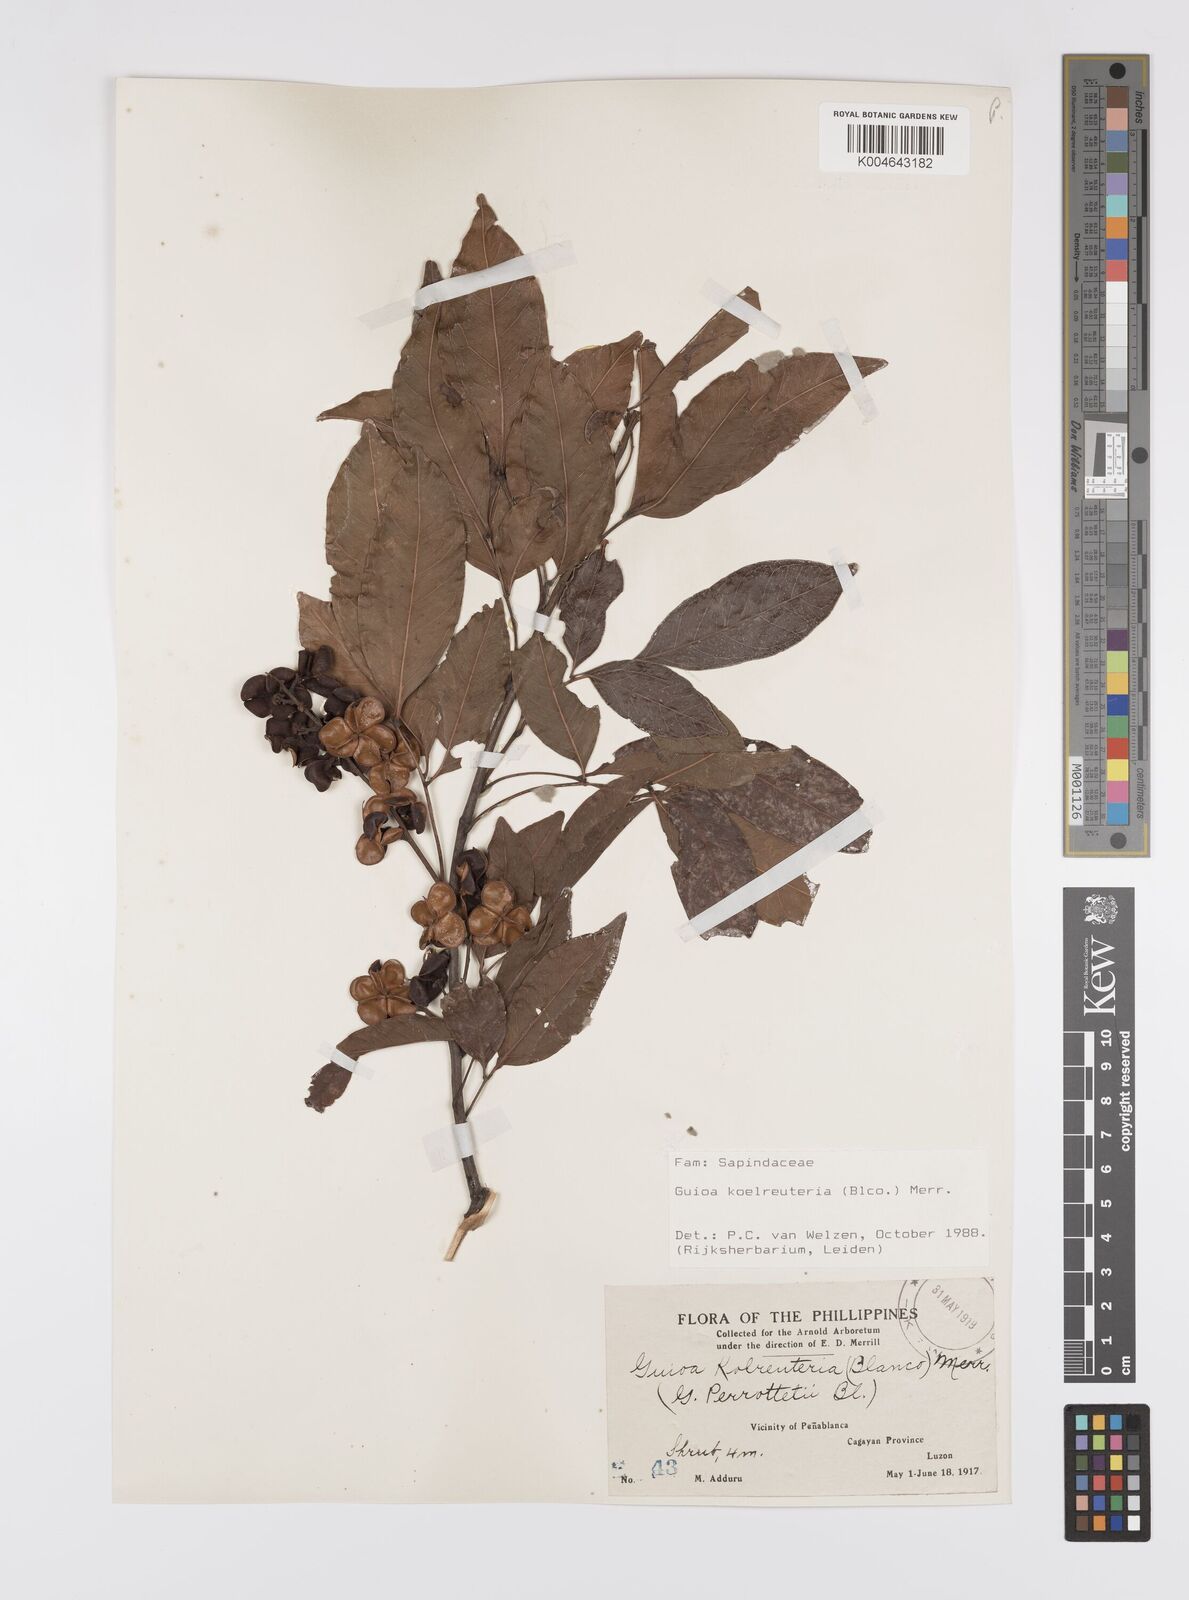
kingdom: Plantae
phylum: Tracheophyta
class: Magnoliopsida
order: Sapindales
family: Sapindaceae
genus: Guioa
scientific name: Guioa koelreuteria
